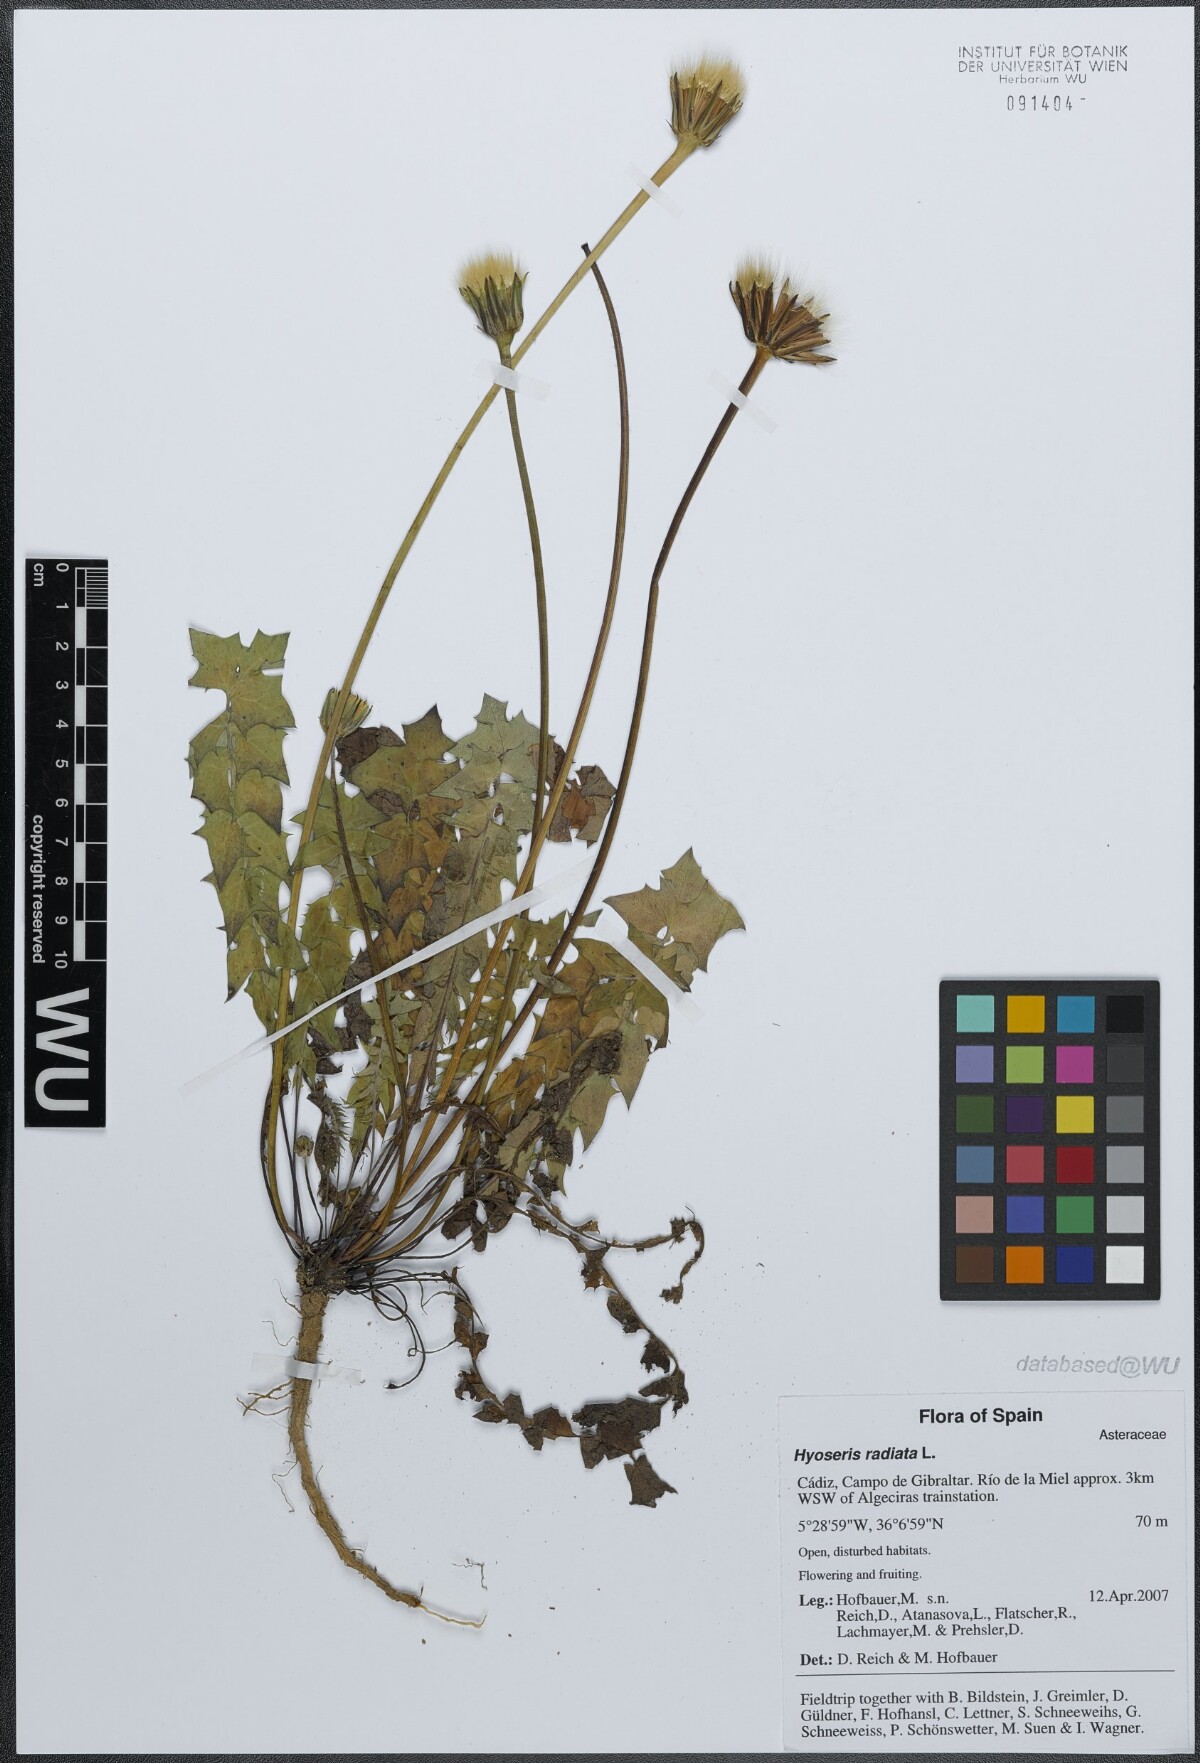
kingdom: Plantae
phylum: Tracheophyta
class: Magnoliopsida
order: Asterales
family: Asteraceae
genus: Hyoseris
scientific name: Hyoseris radiata
